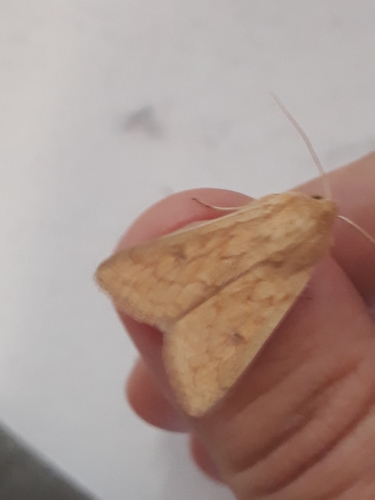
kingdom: Animalia
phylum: Arthropoda
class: Insecta
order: Lepidoptera
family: Noctuidae
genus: Mythimna
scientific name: Mythimna vitellina
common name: Delicate
